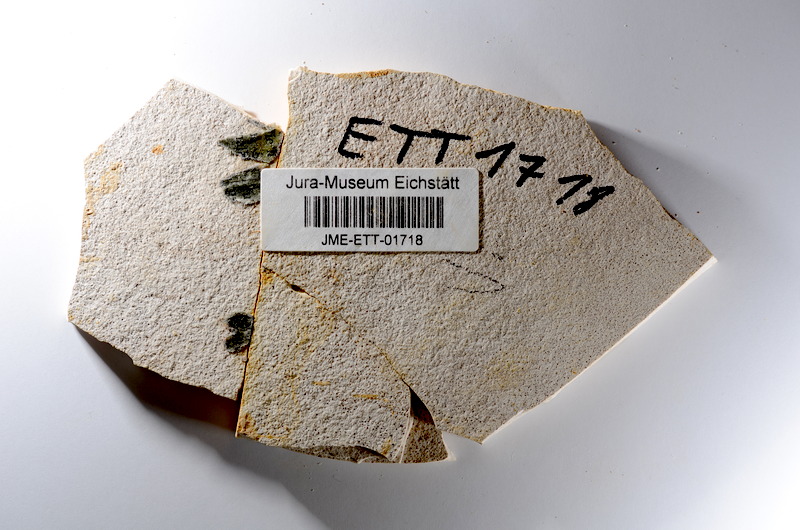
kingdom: Animalia
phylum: Chordata
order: Salmoniformes
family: Orthogonikleithridae
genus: Orthogonikleithrus
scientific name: Orthogonikleithrus hoelli
